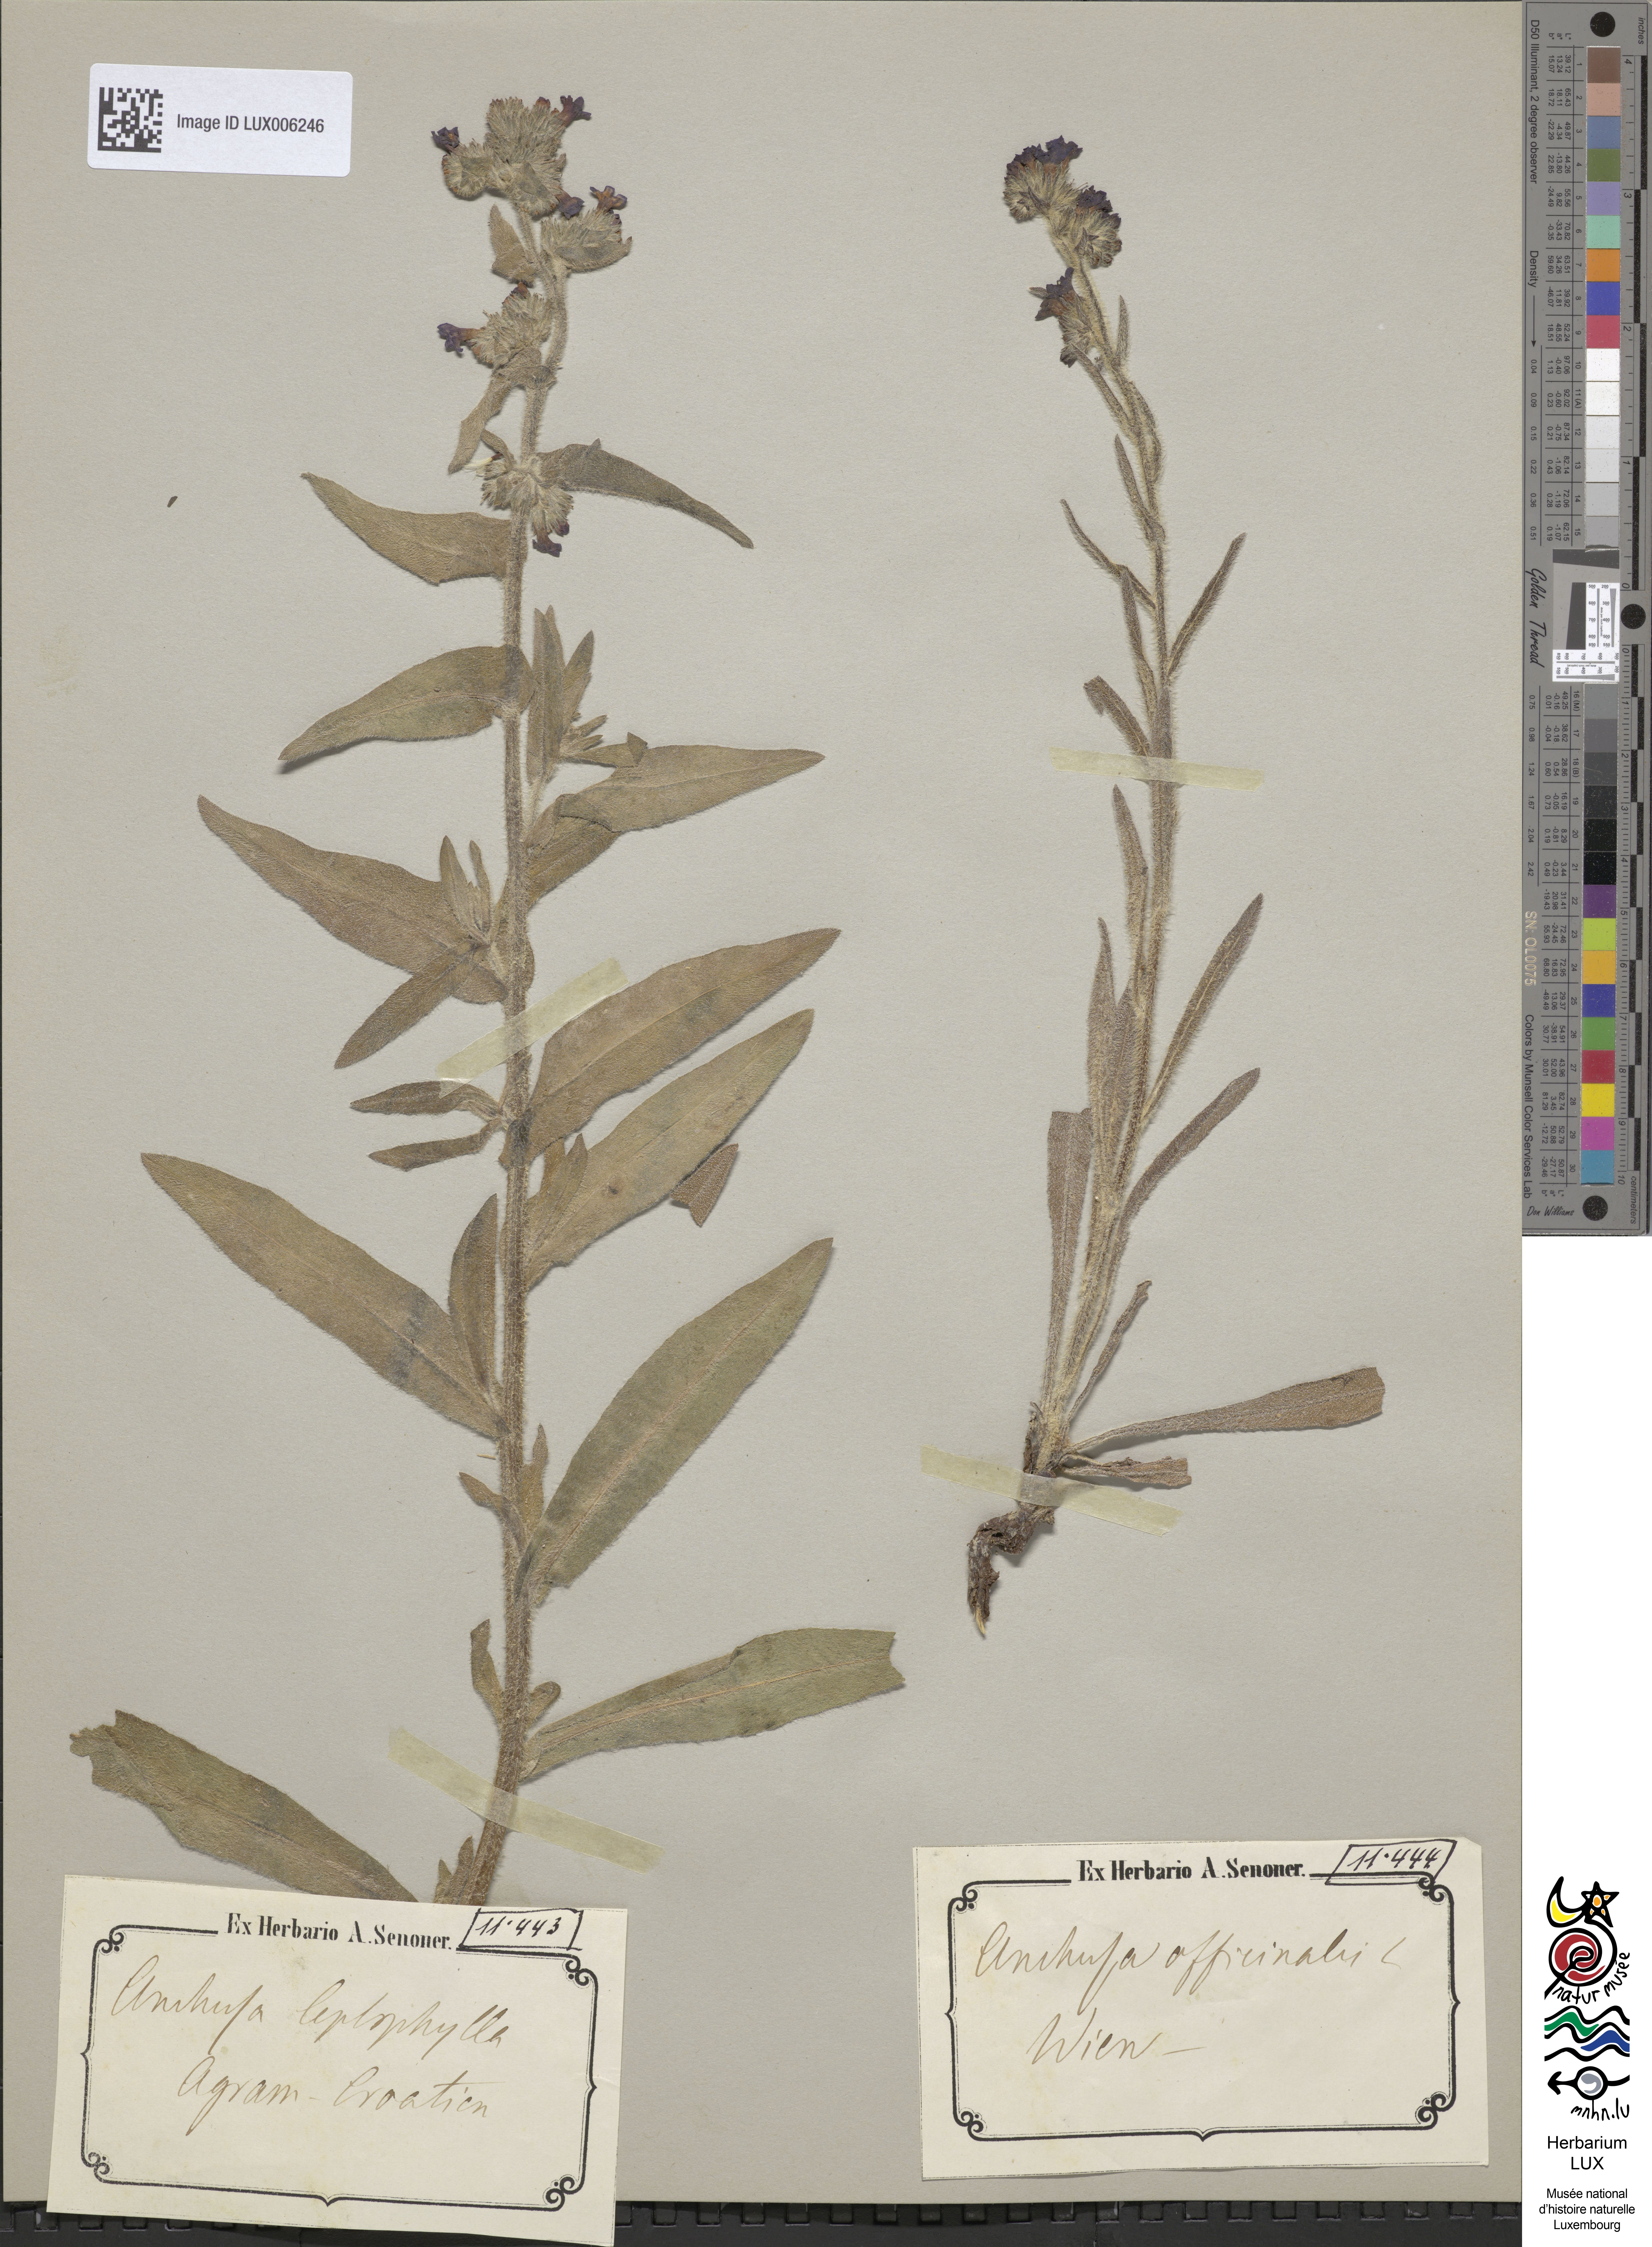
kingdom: Plantae
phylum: Tracheophyta
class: Magnoliopsida
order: Boraginales
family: Boraginaceae
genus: Anchusa
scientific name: Anchusa officinalis
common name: Alkanet
